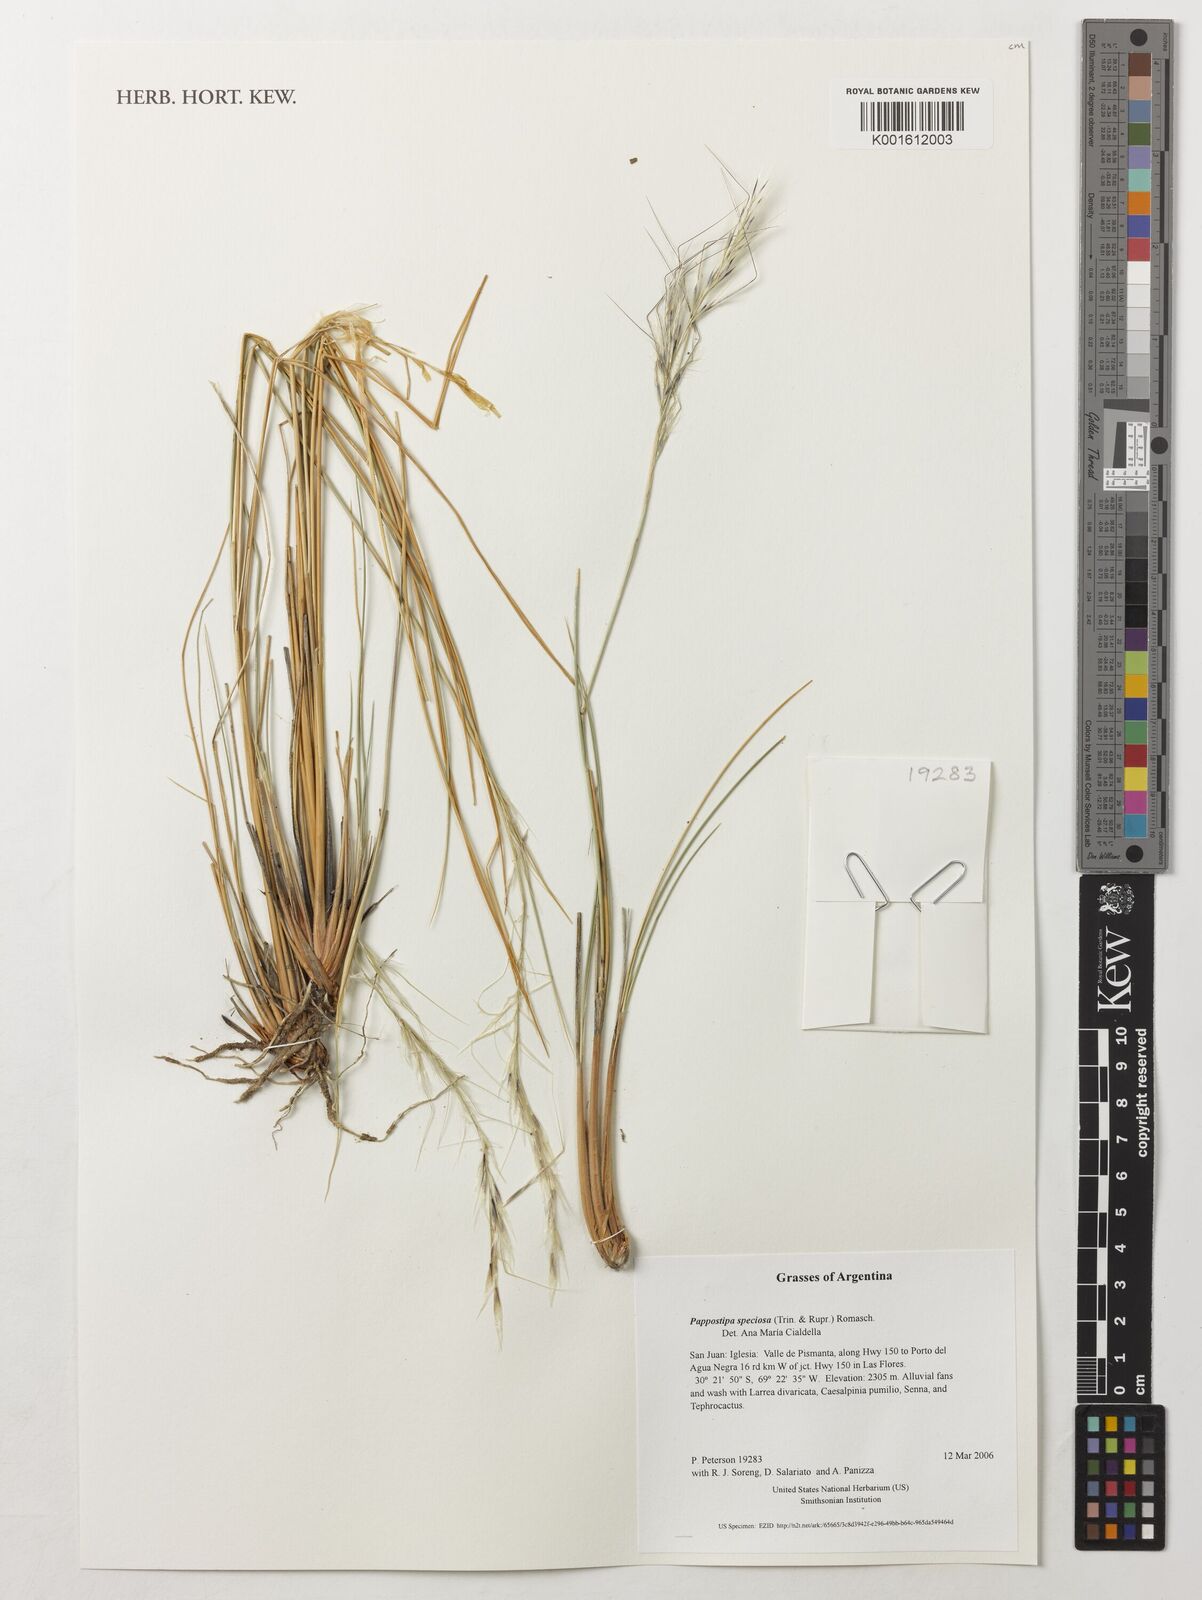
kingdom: Plantae
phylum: Tracheophyta
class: Liliopsida
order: Poales
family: Poaceae
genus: Pappostipa
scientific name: Pappostipa speciosa
